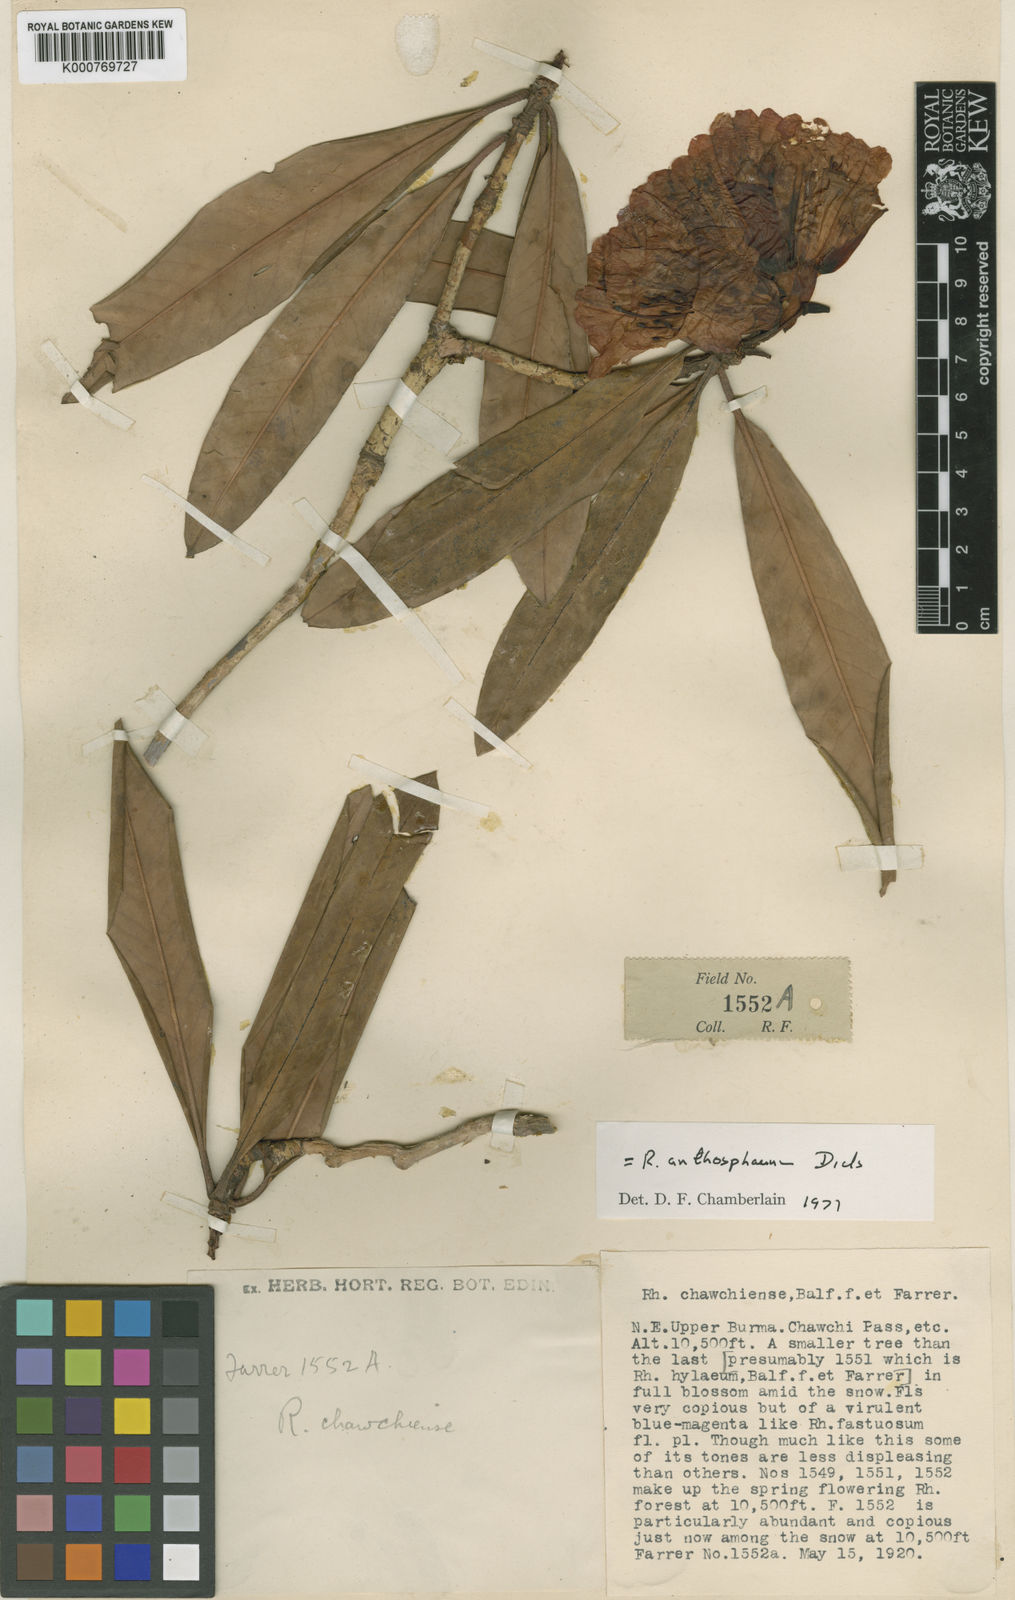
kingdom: Plantae
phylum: Tracheophyta
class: Magnoliopsida
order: Ericales
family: Ericaceae
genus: Rhododendron
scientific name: Rhododendron anthosphaerum
